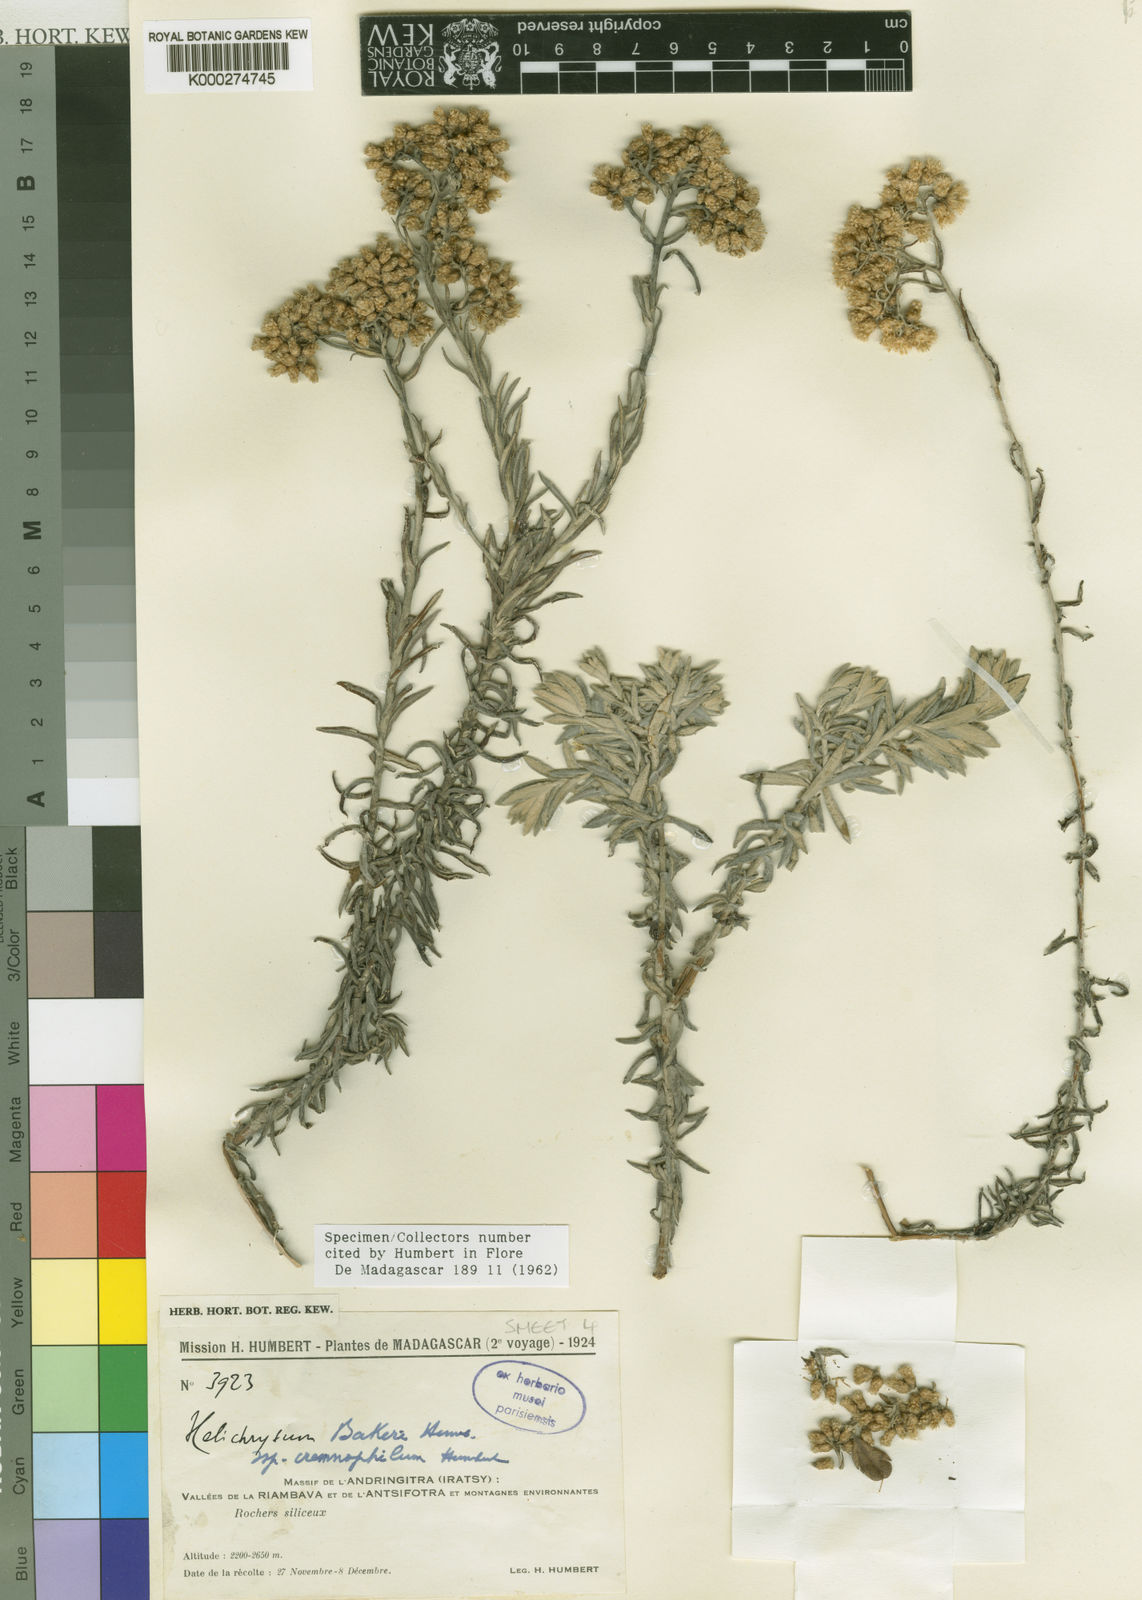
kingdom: Plantae
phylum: Tracheophyta
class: Magnoliopsida
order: Asterales
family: Asteraceae
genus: Helichrysum
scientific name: Helichrysum cremnophilum
